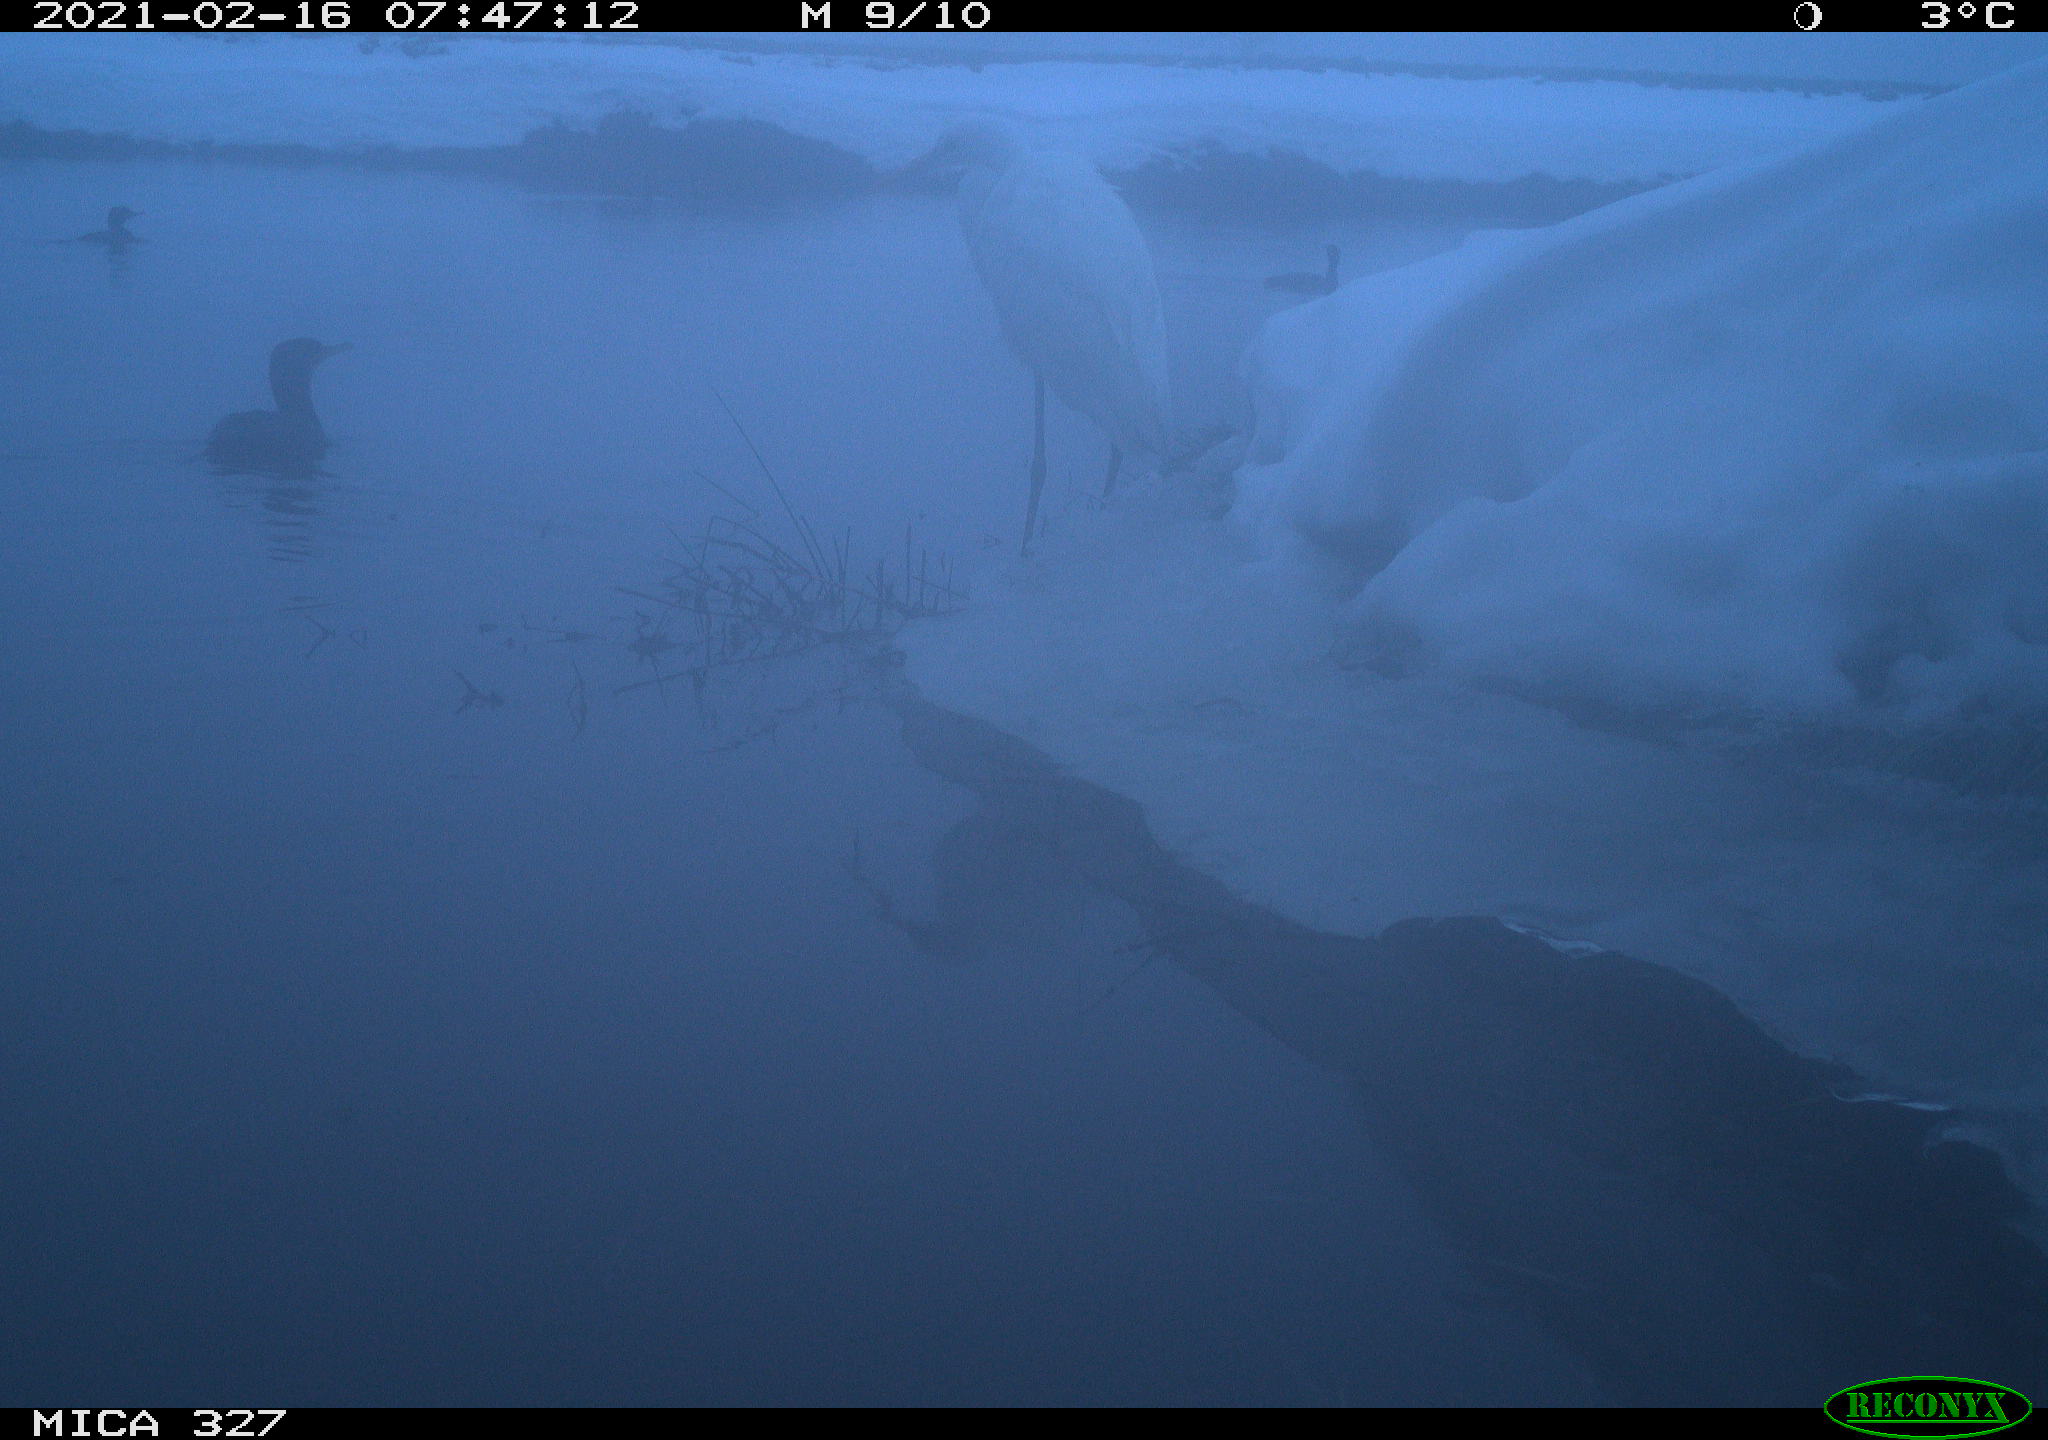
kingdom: Animalia
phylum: Chordata
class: Aves
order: Suliformes
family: Phalacrocoracidae
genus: Phalacrocorax
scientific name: Phalacrocorax carbo
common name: Great cormorant
